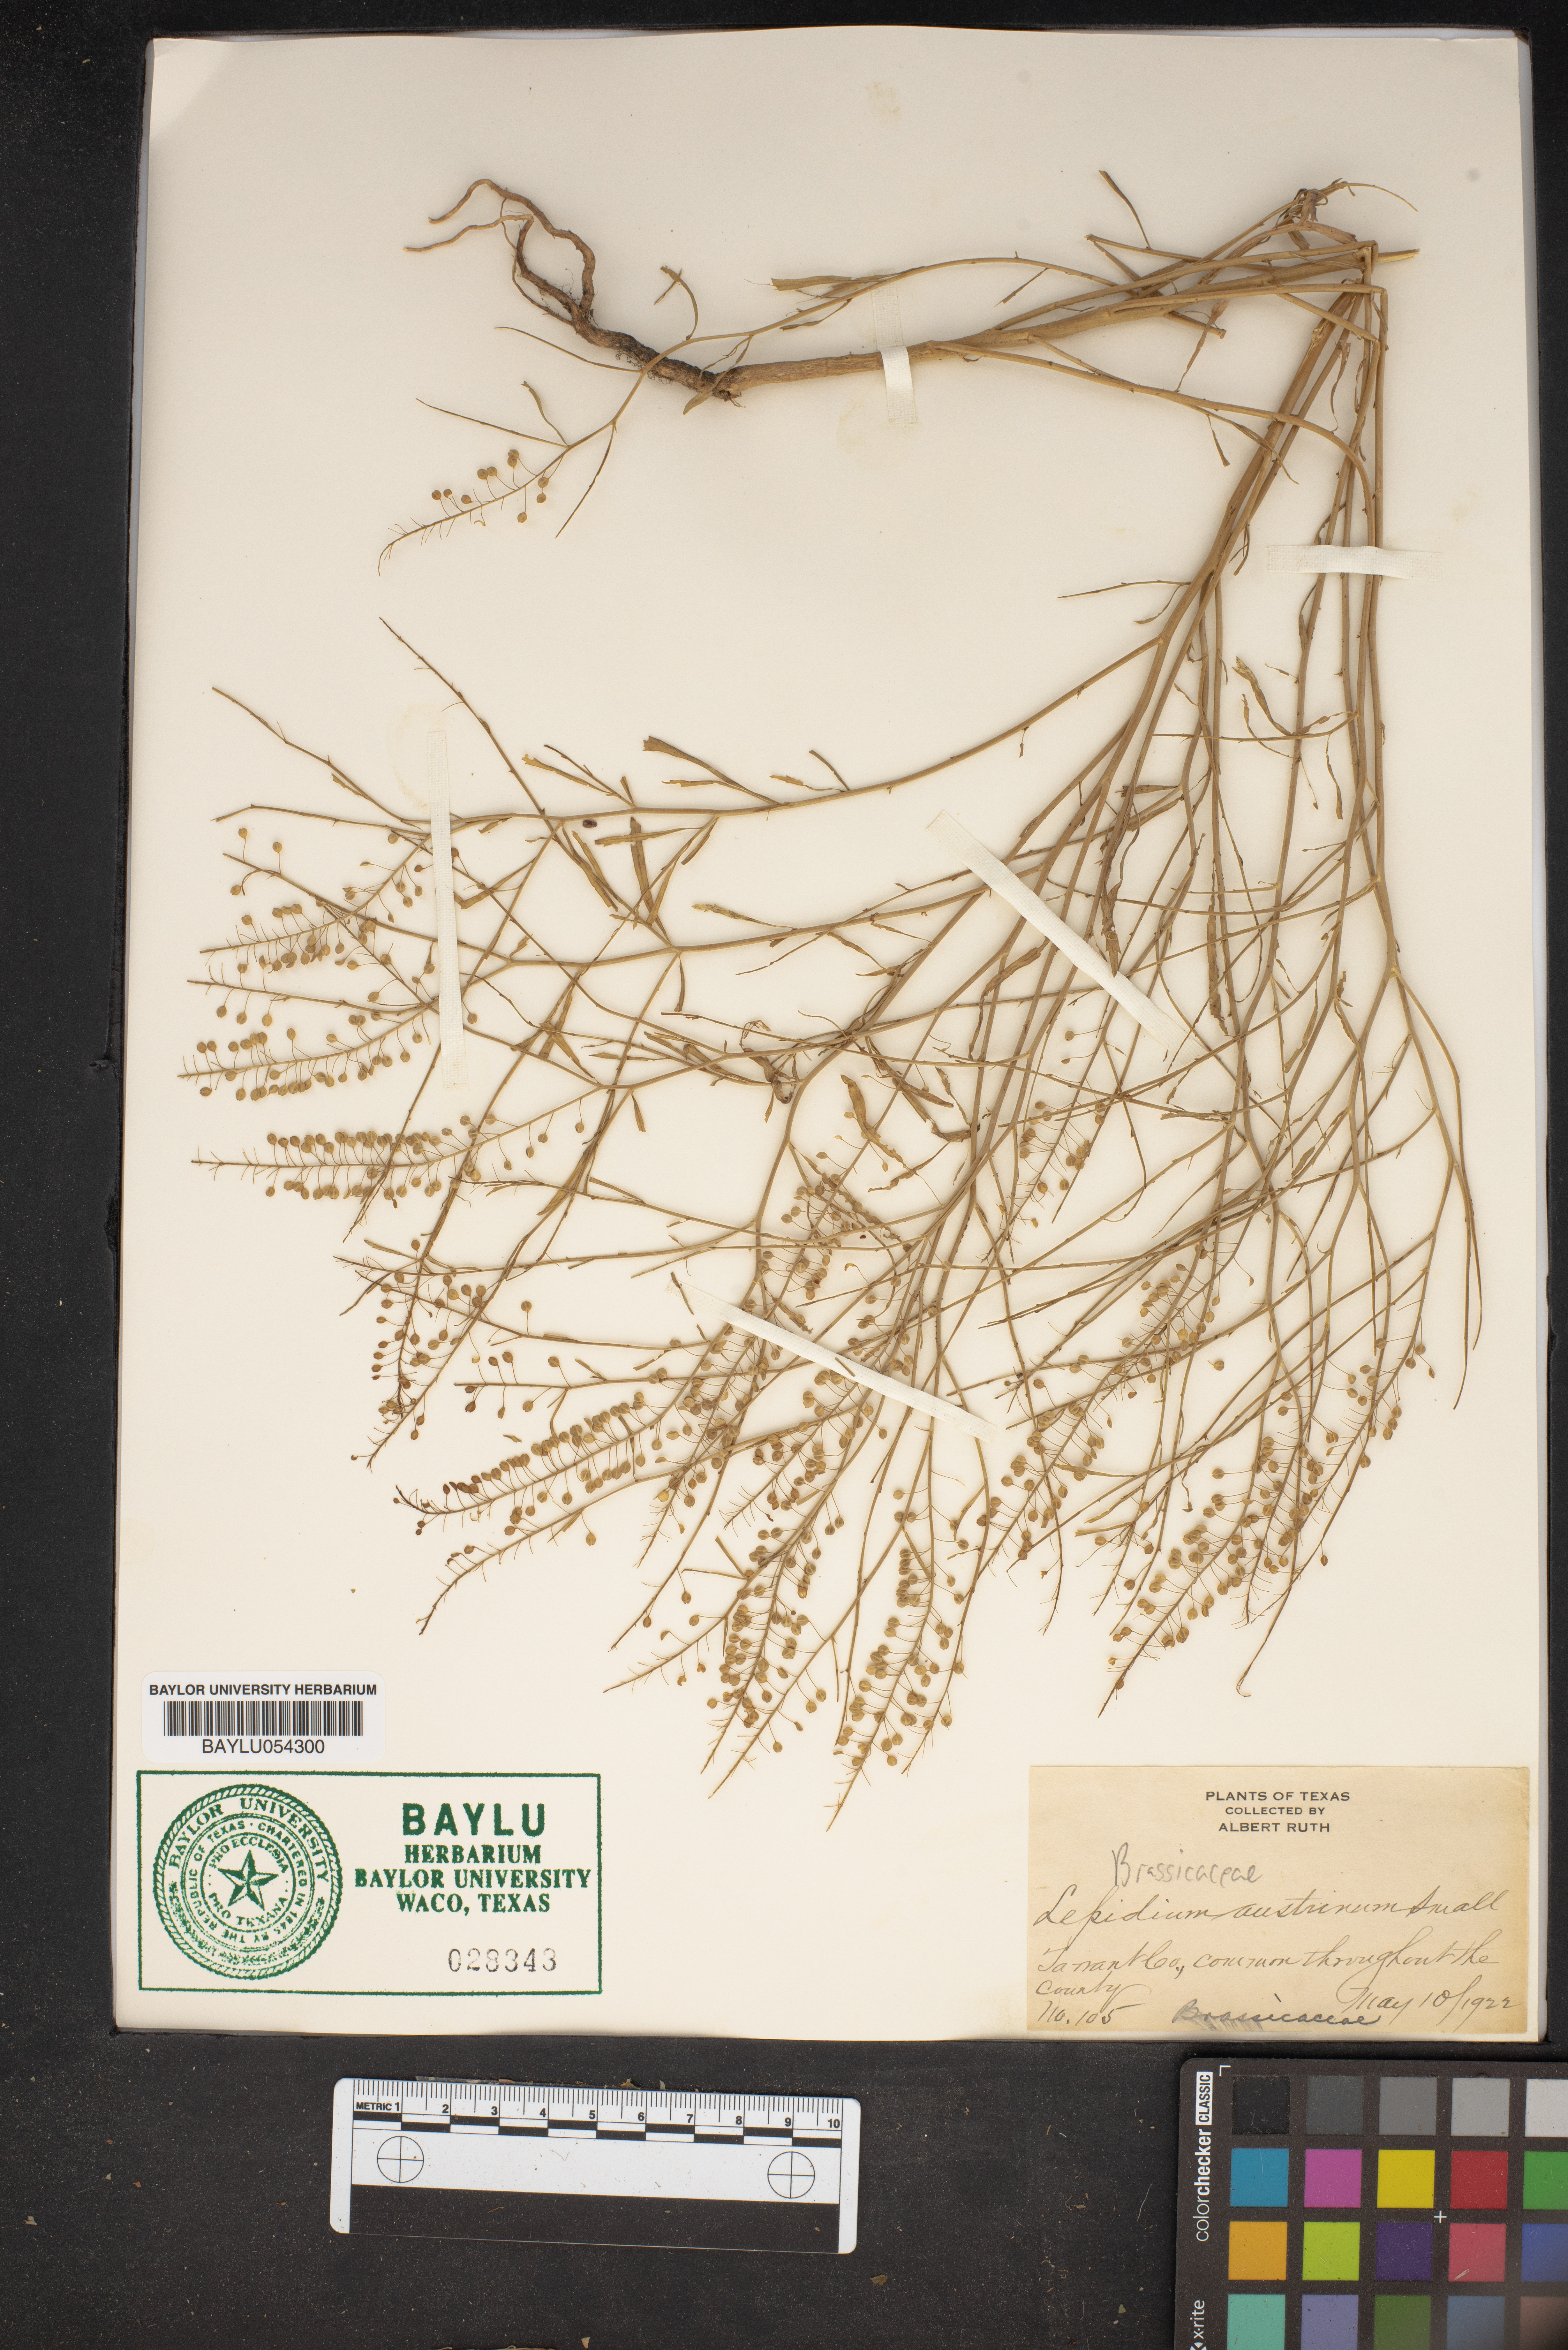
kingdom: Plantae
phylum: Tracheophyta
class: Magnoliopsida
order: Brassicales
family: Brassicaceae
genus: Lepidium
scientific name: Lepidium austrinum
